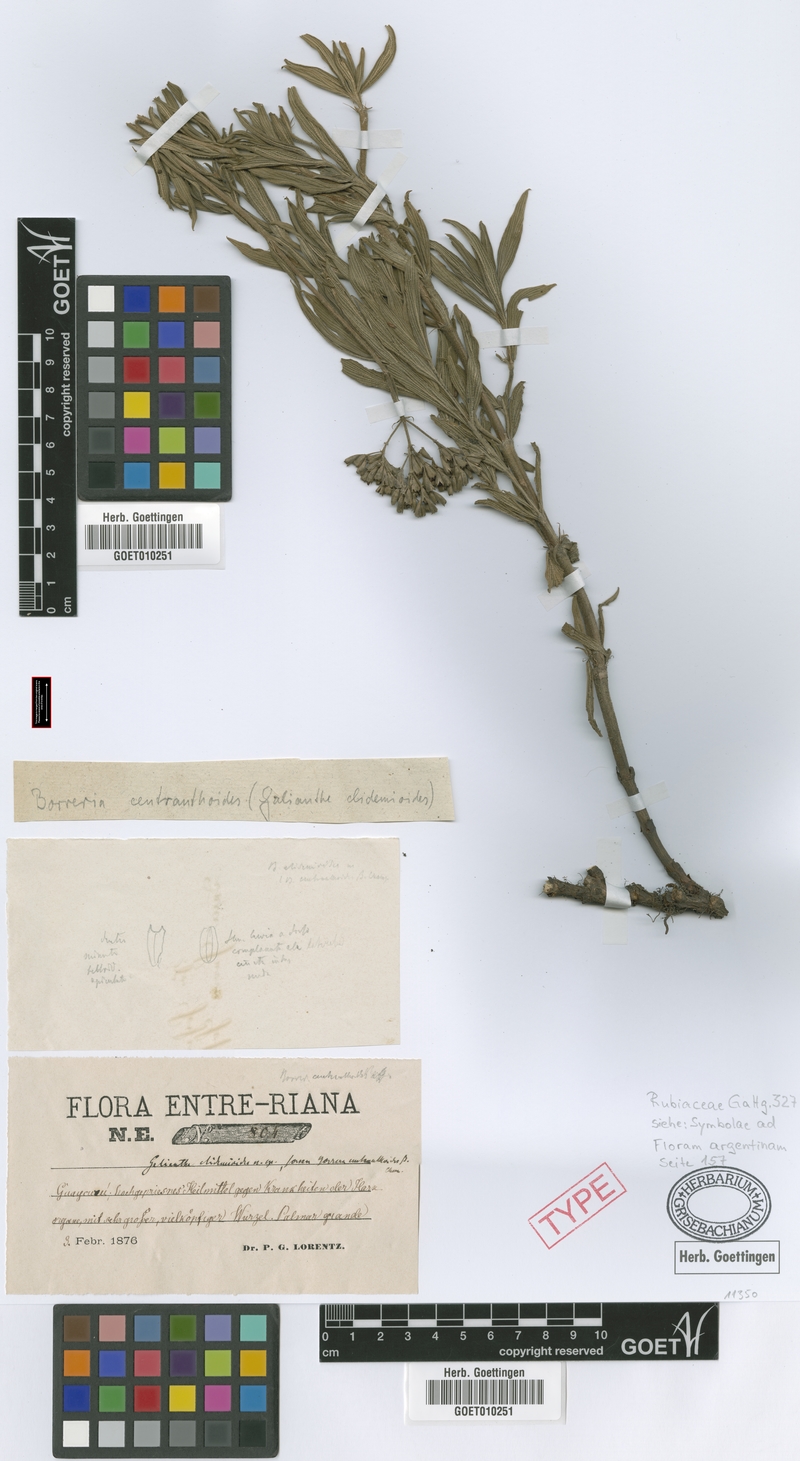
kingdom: Plantae
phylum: Tracheophyta
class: Magnoliopsida
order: Gentianales
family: Rubiaceae
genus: Galianthe
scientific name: Galianthe centranthoides
